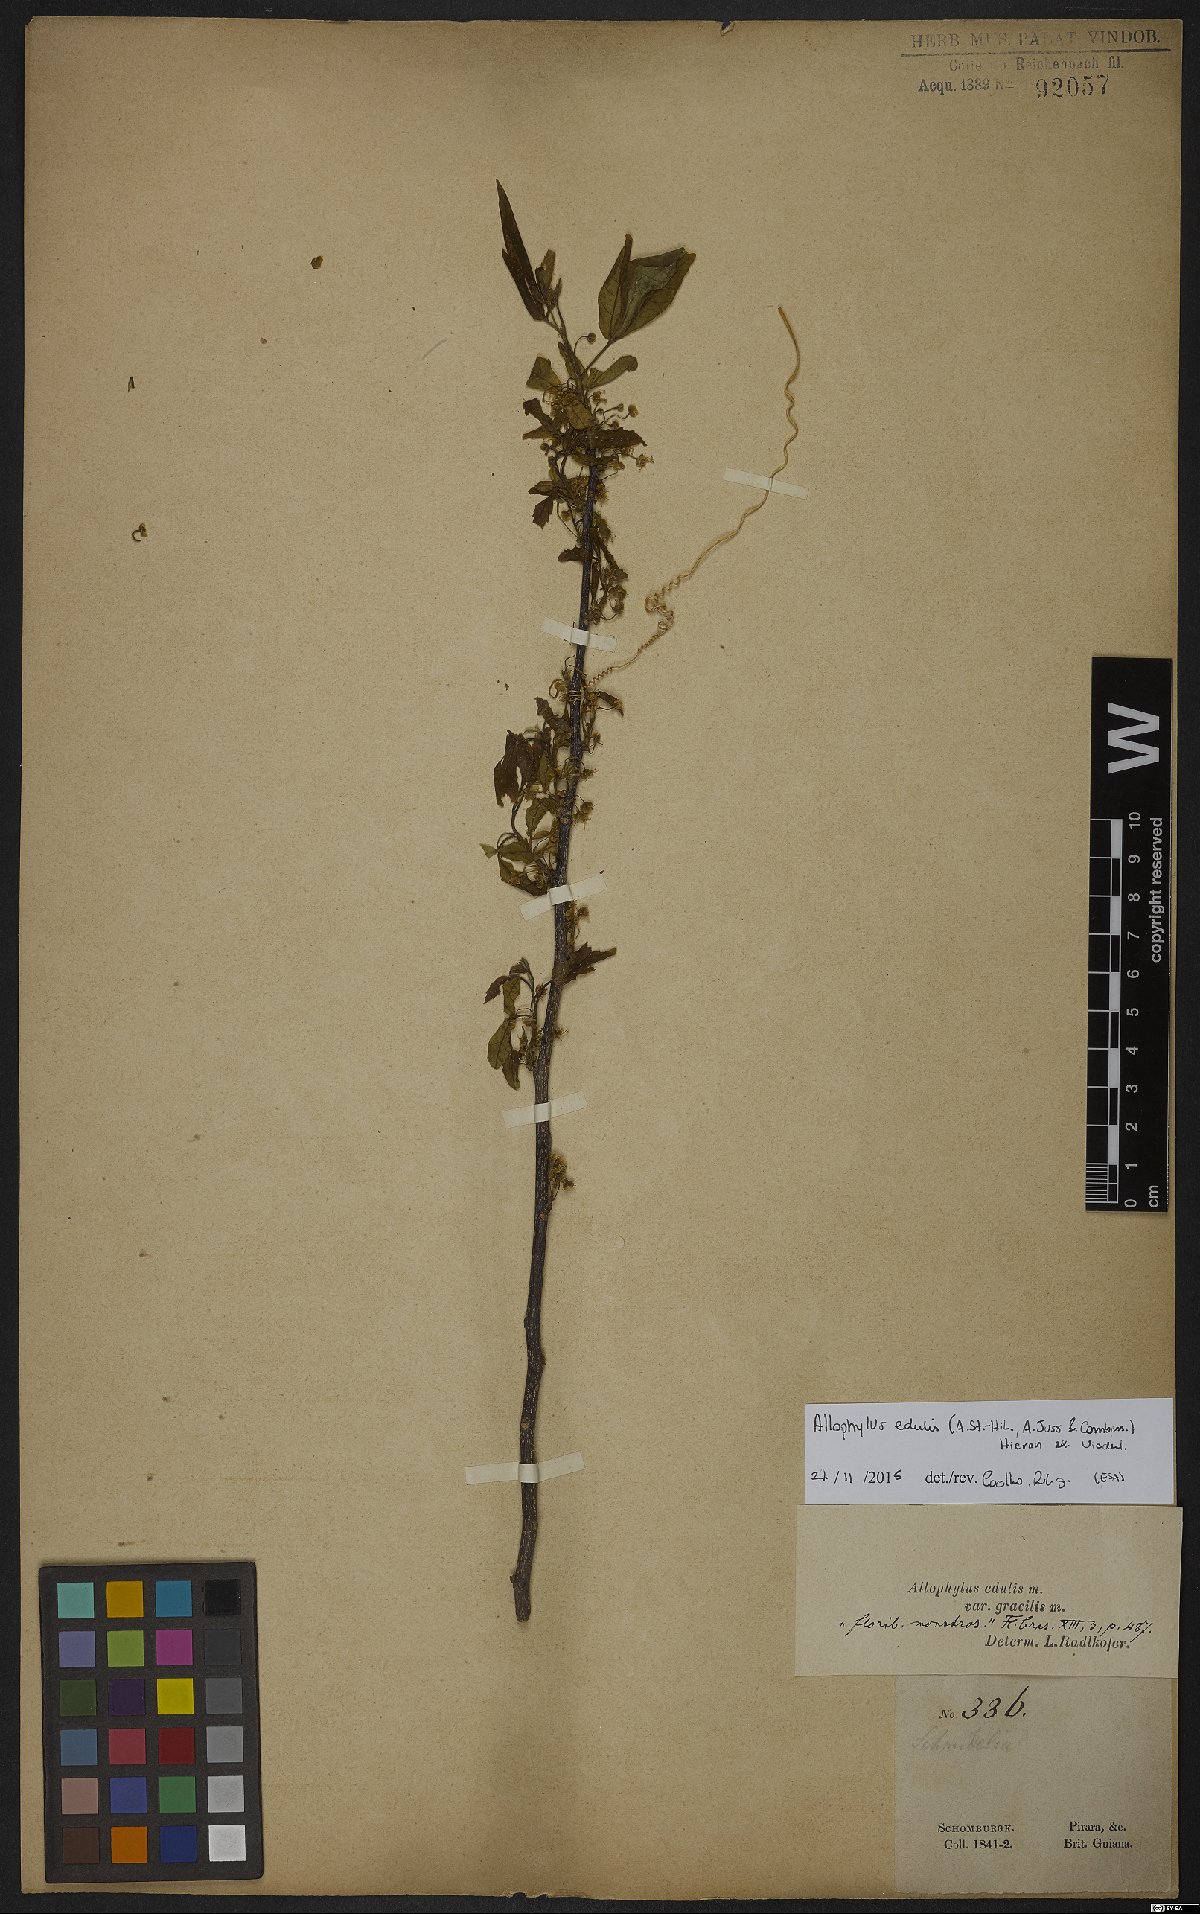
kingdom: Plantae
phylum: Tracheophyta
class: Magnoliopsida
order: Sapindales
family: Sapindaceae
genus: Allophylus
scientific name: Allophylus edulis
